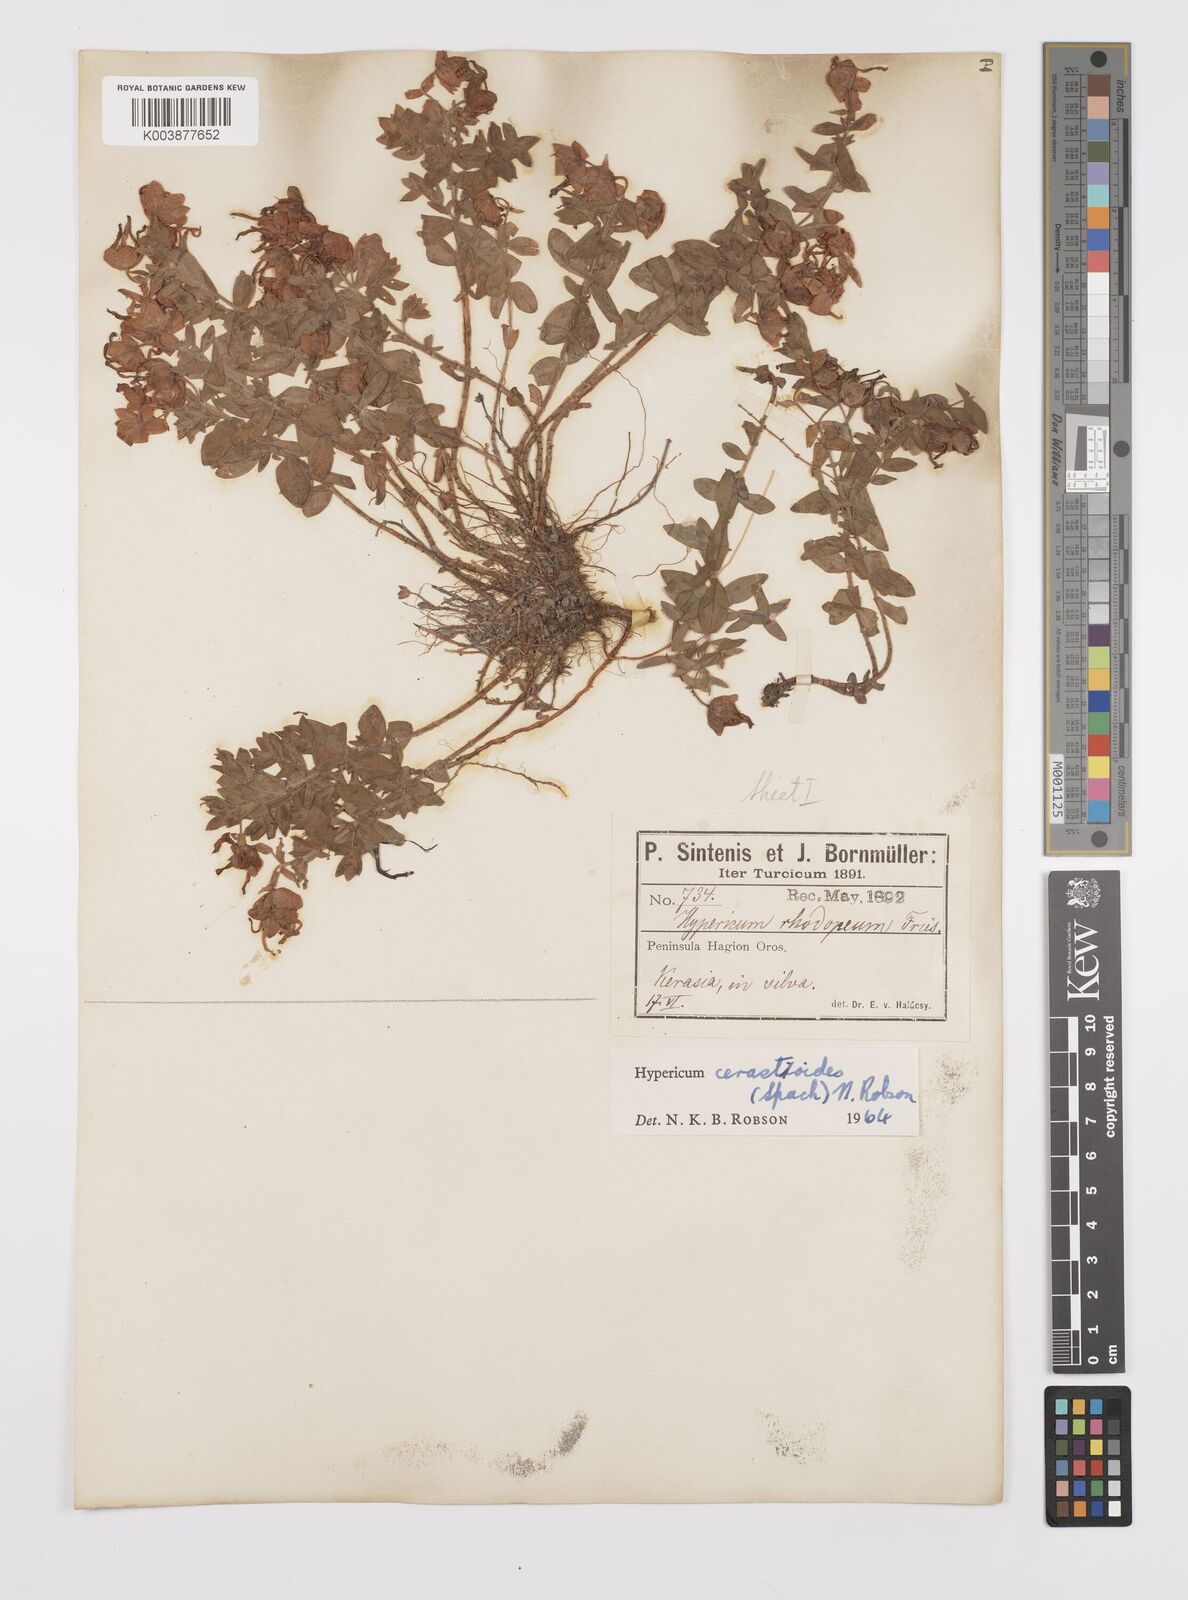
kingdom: Plantae
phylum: Tracheophyta
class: Magnoliopsida
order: Malpighiales
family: Hypericaceae
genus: Hypericum
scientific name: Hypericum cerastoides
